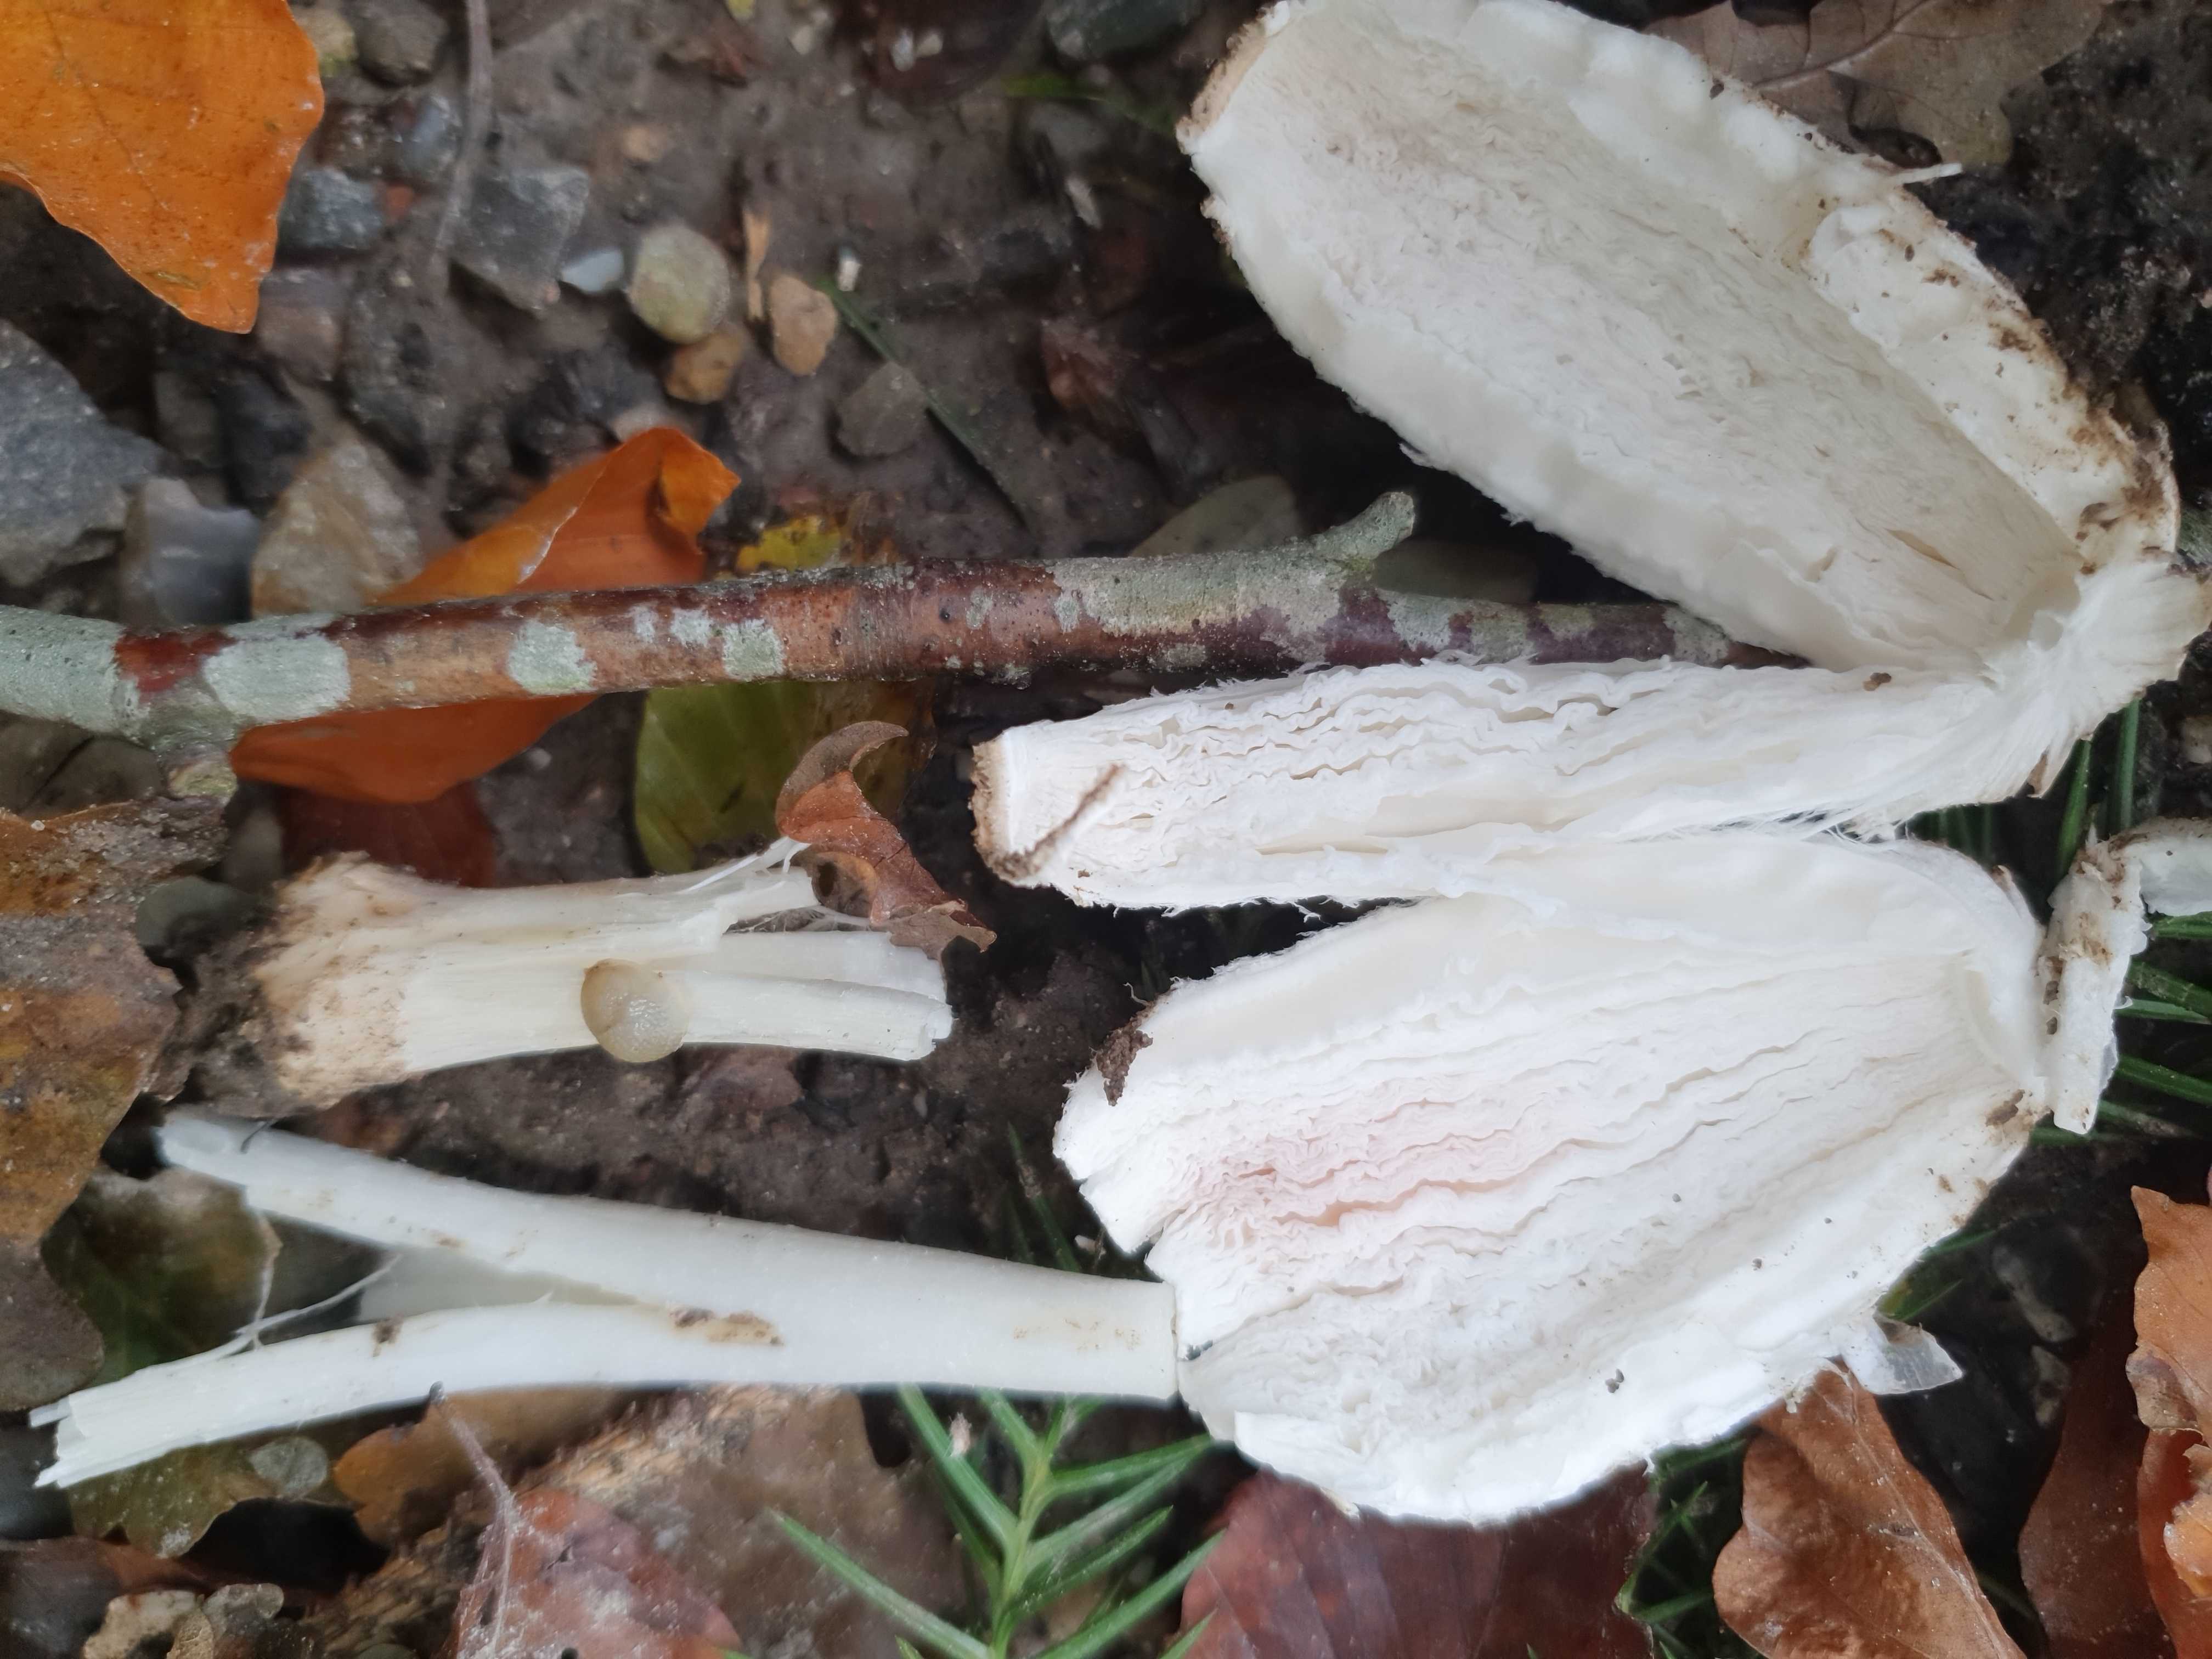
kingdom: Fungi
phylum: Basidiomycota
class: Agaricomycetes
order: Agaricales
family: Agaricaceae
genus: Coprinus
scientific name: Coprinus comatus
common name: stor parykhat
